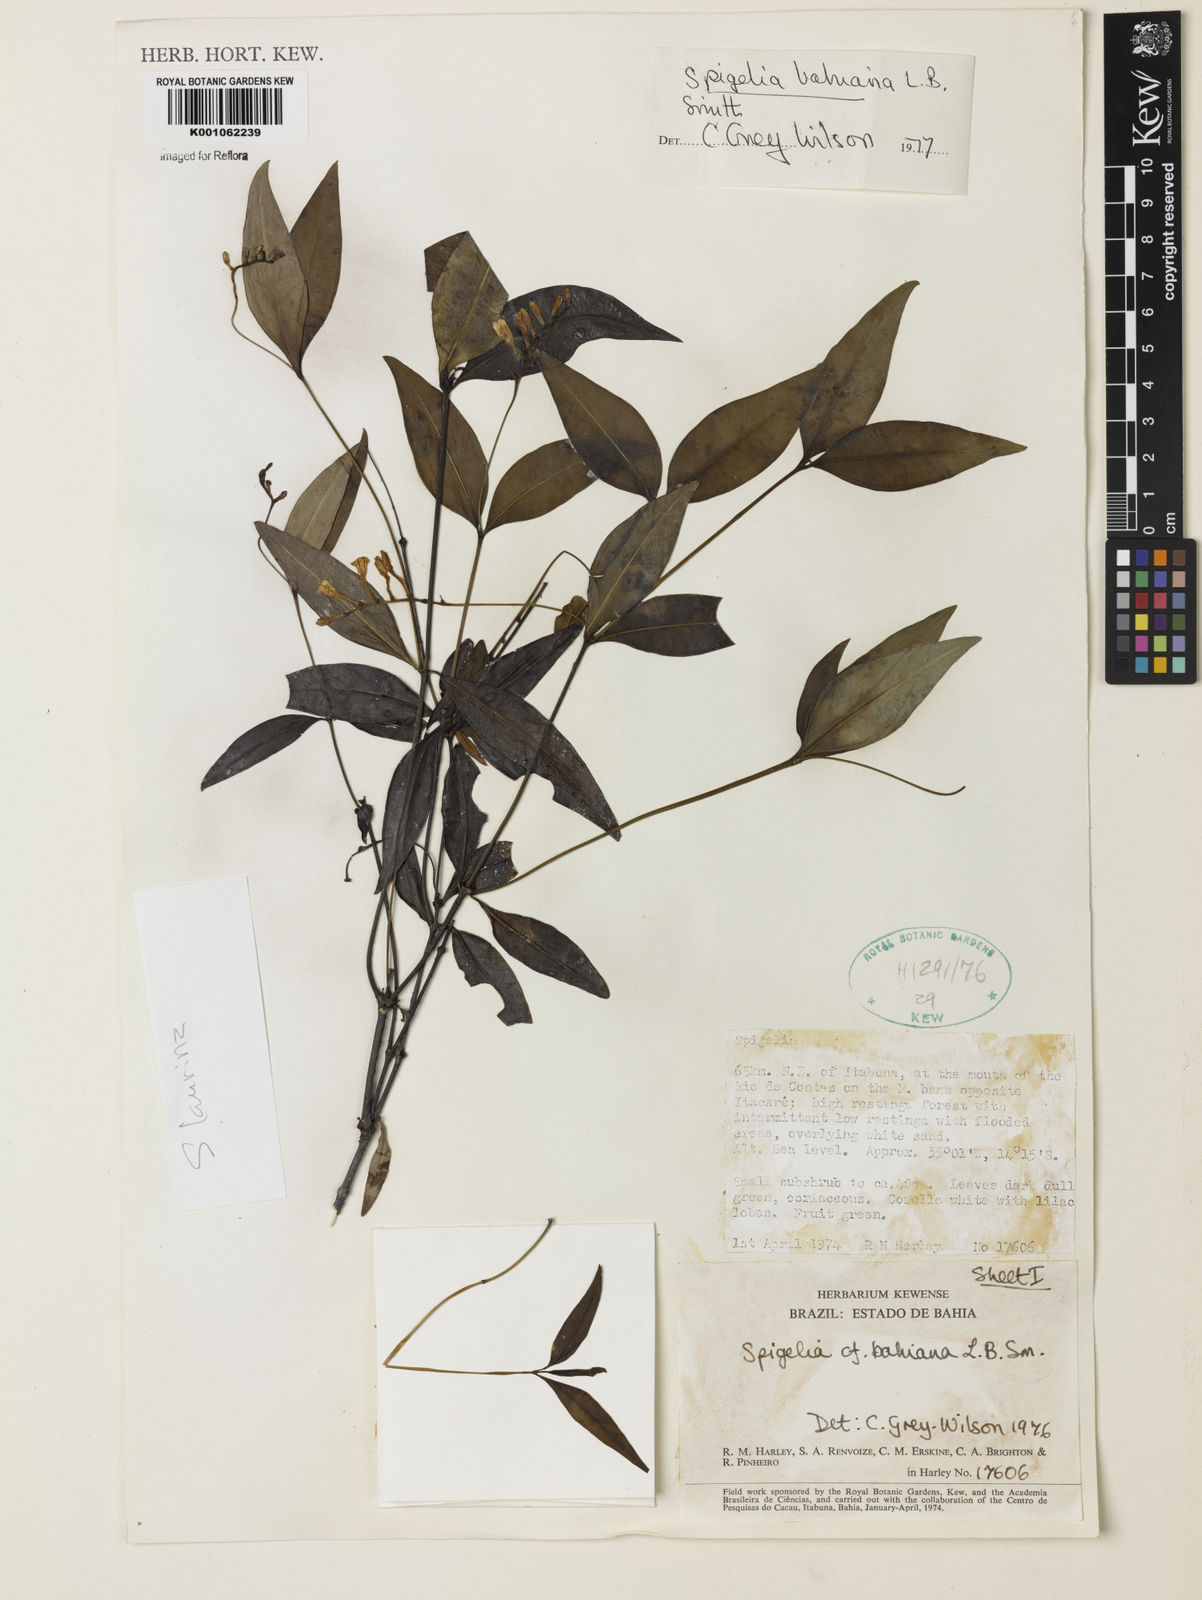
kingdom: Plantae
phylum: Tracheophyta
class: Magnoliopsida
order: Gentianales
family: Loganiaceae
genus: Spigelia
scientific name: Spigelia laurina
